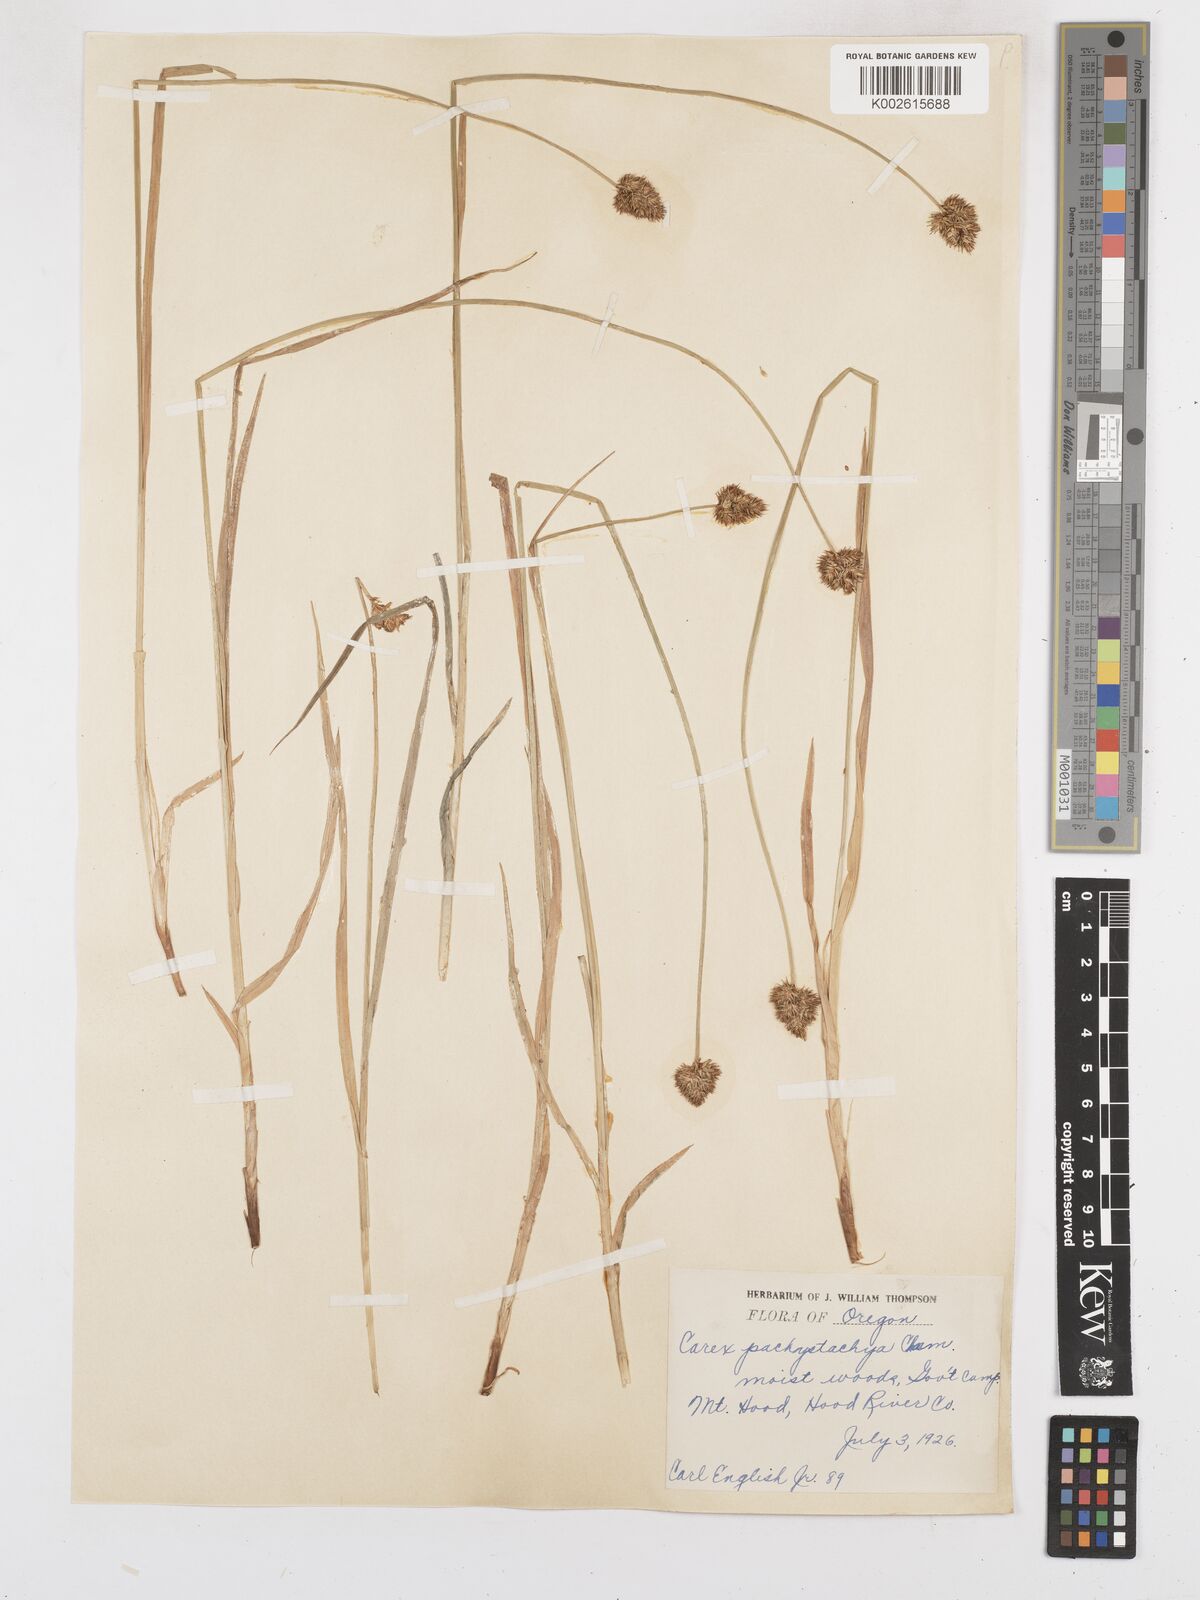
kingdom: Plantae
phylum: Tracheophyta
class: Liliopsida
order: Poales
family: Cyperaceae
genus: Carex
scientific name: Carex pachystachya
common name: Chamisso's sedge
